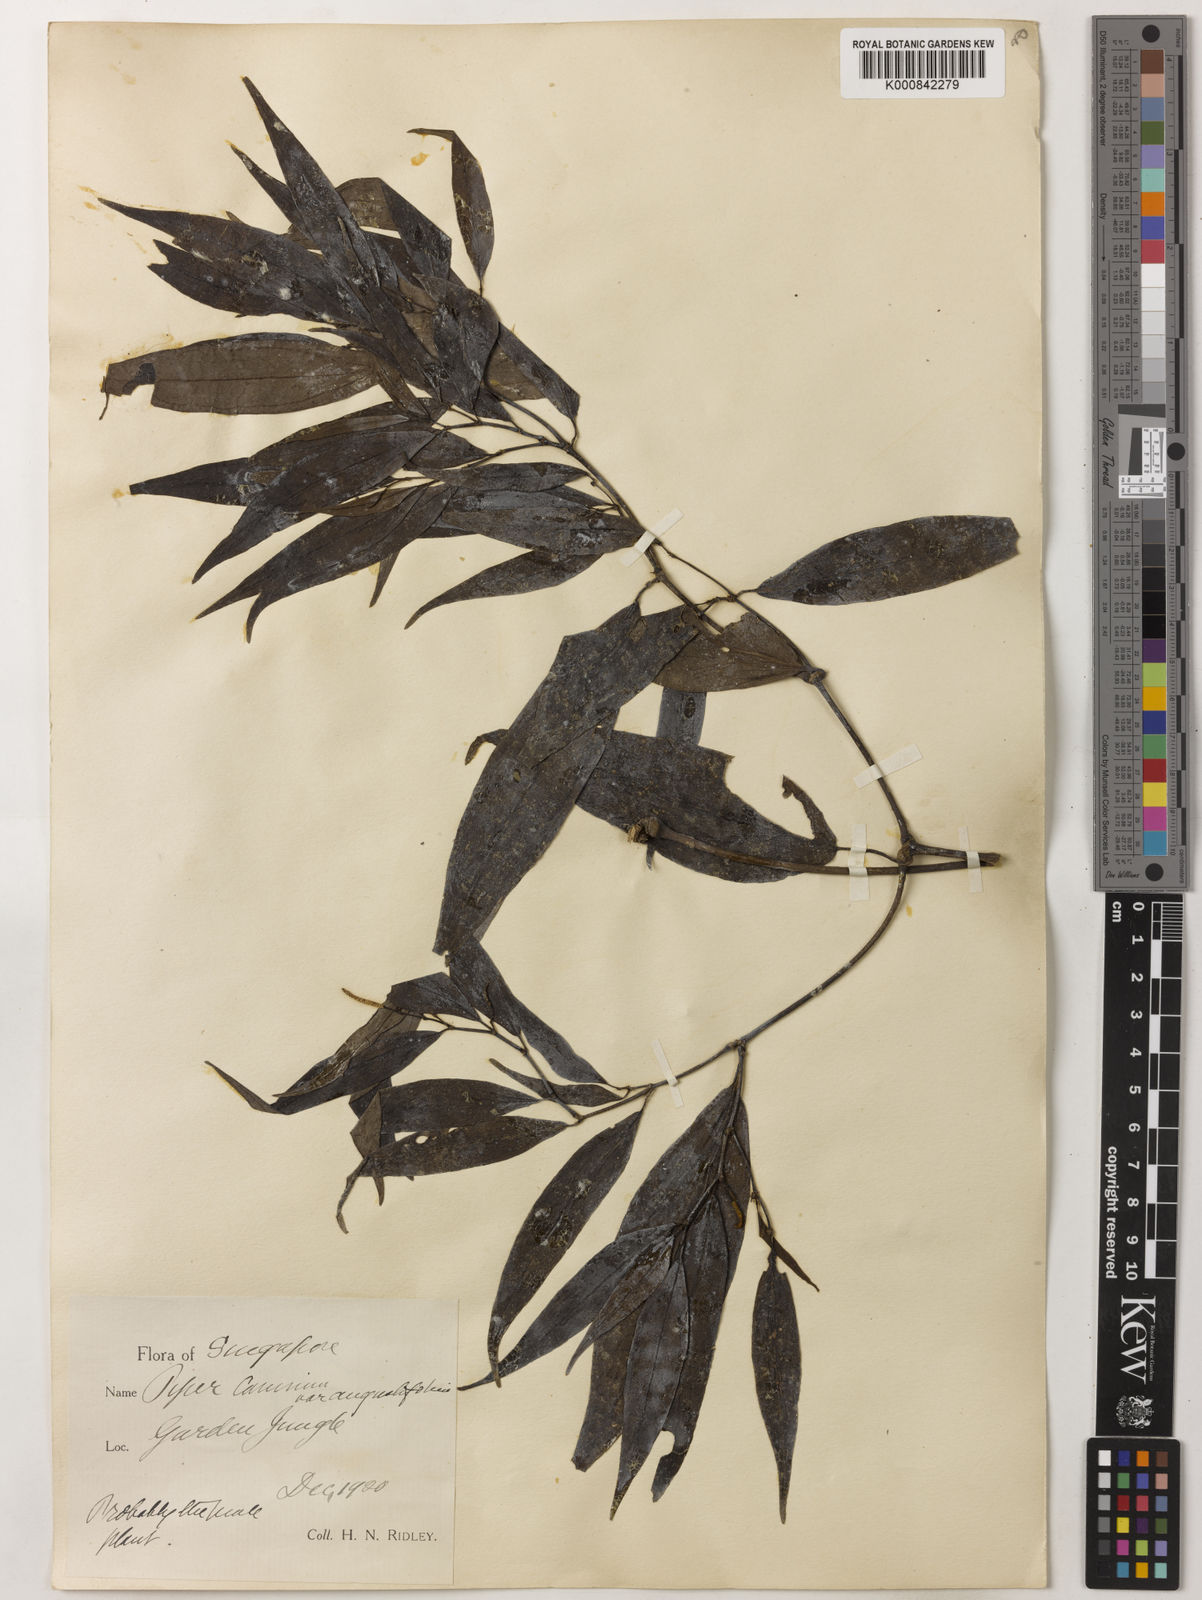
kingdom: Plantae
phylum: Tracheophyta
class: Magnoliopsida
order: Piperales
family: Piperaceae
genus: Piper
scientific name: Piper lanatum
